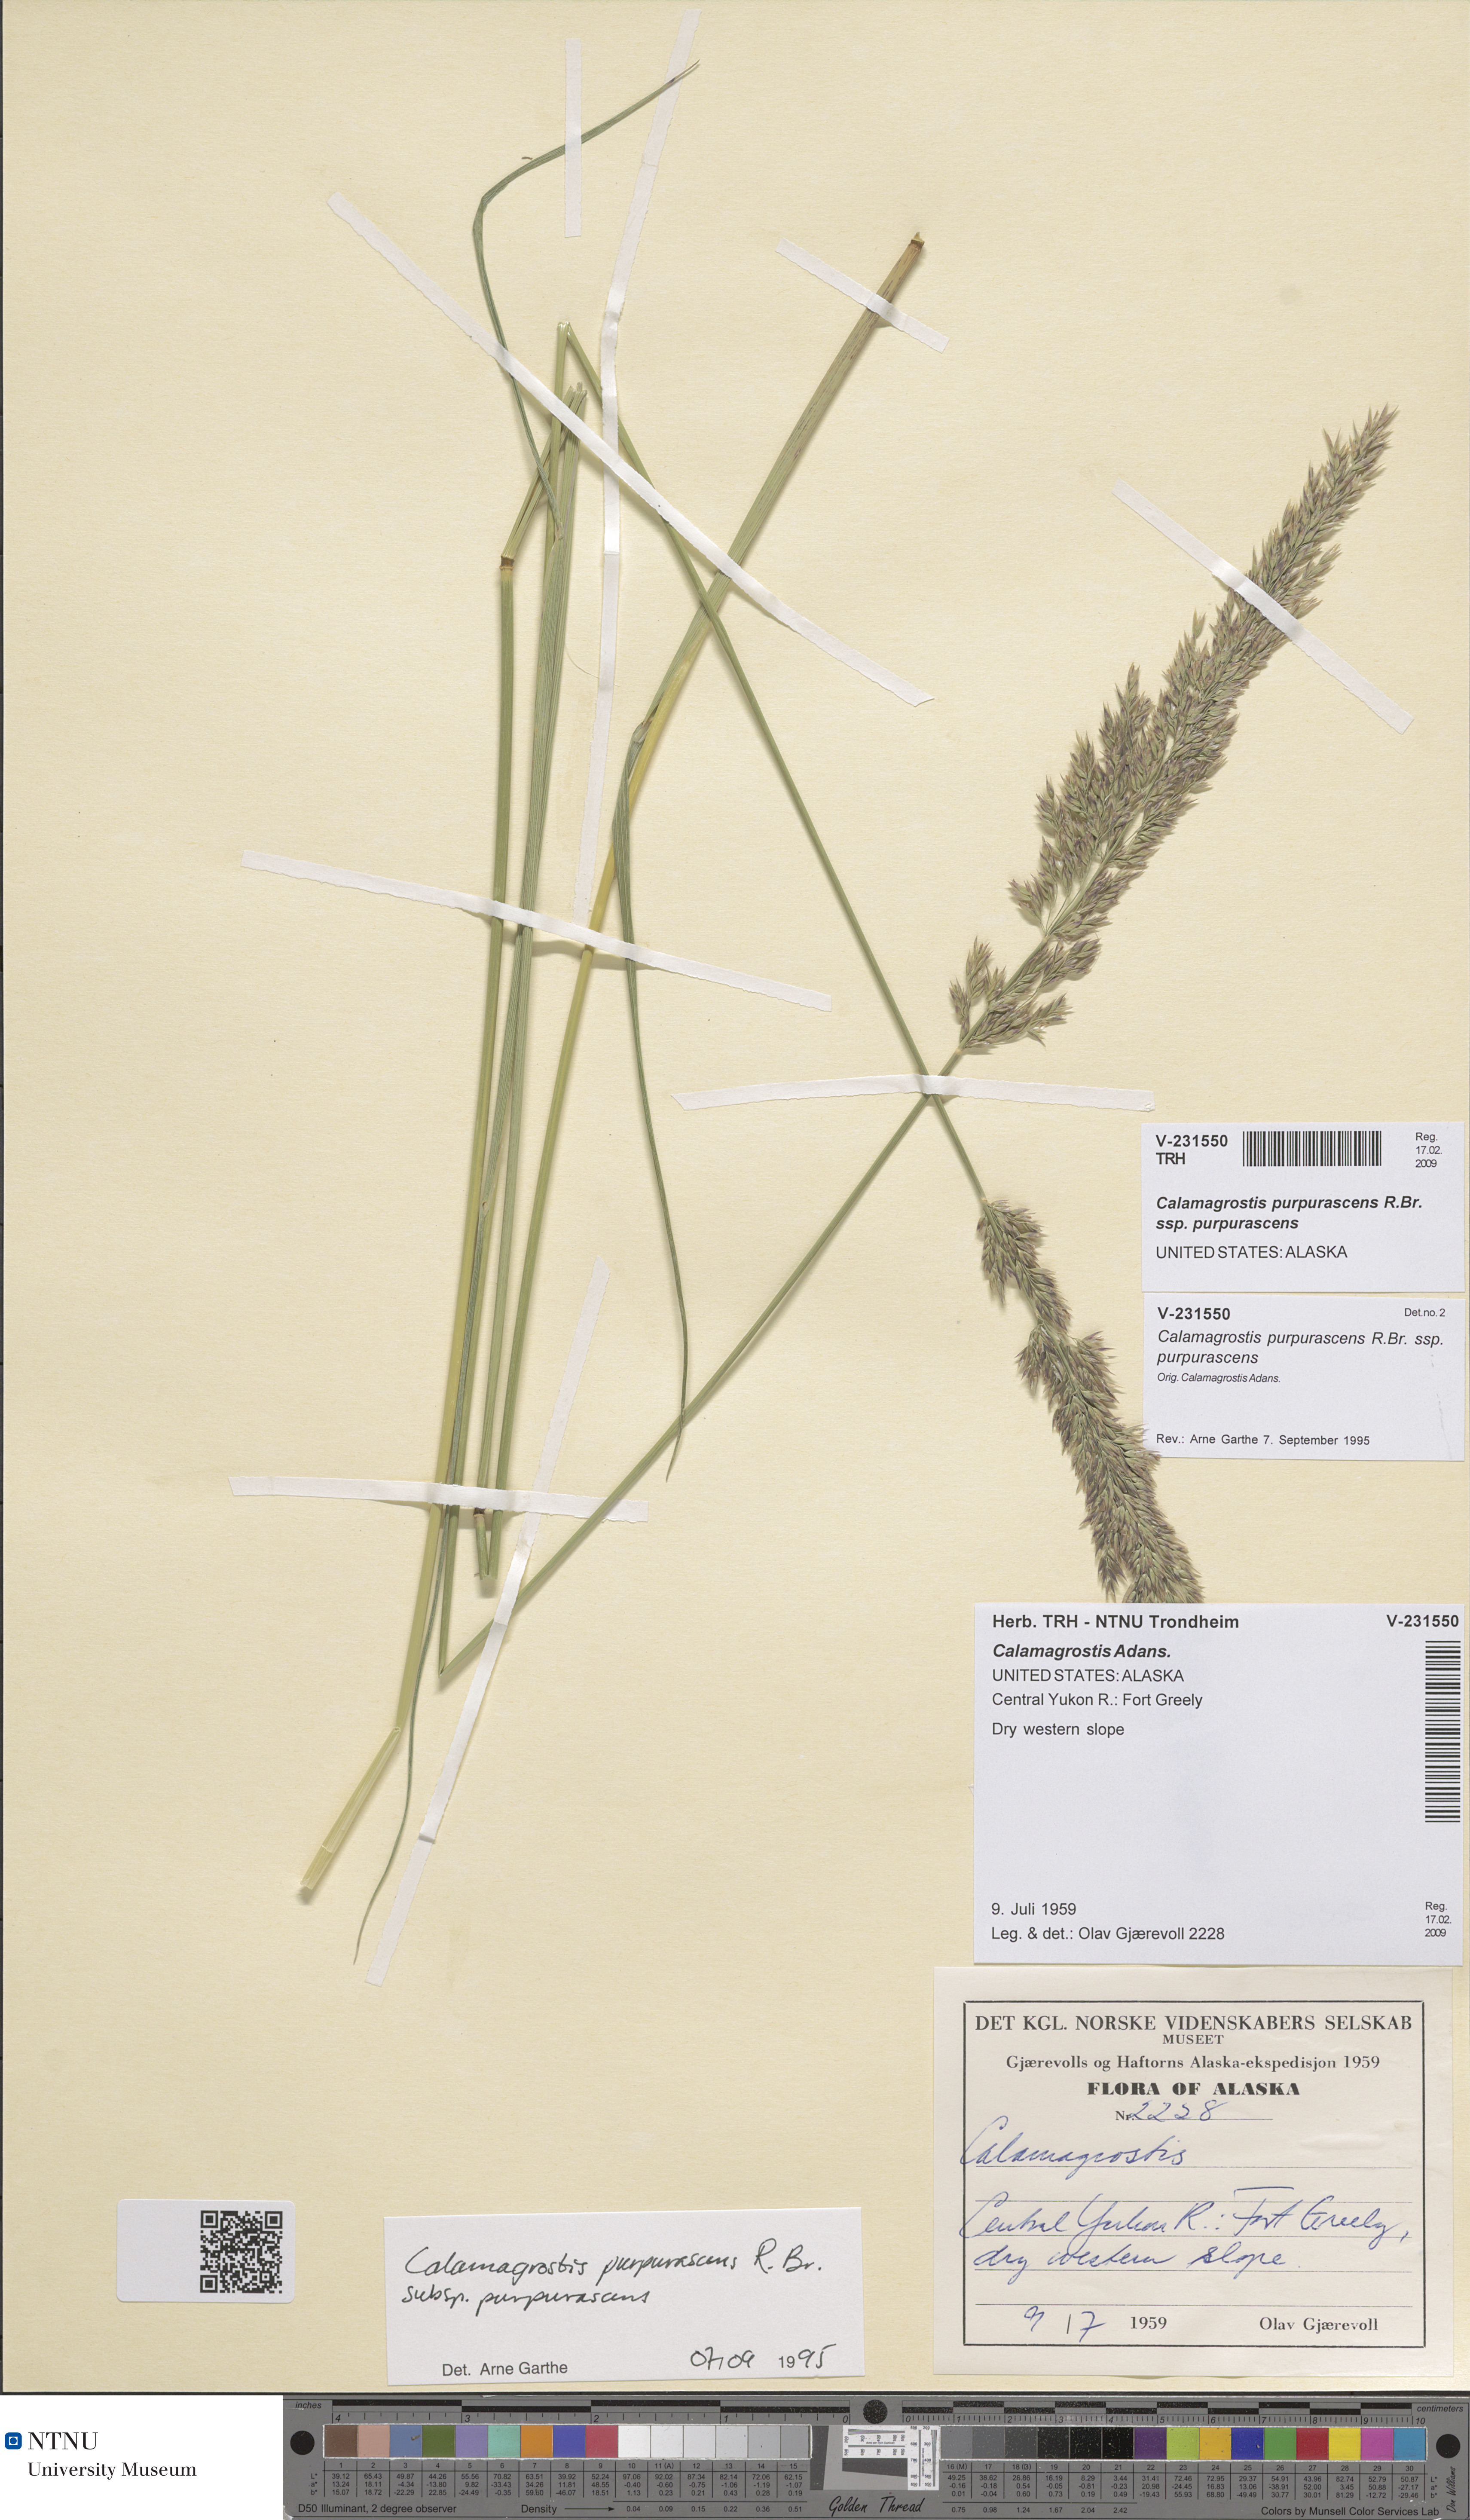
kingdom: Plantae
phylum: Tracheophyta
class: Liliopsida
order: Poales
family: Poaceae
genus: Calamagrostis
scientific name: Calamagrostis purpurascens
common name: Purple reedgrass
